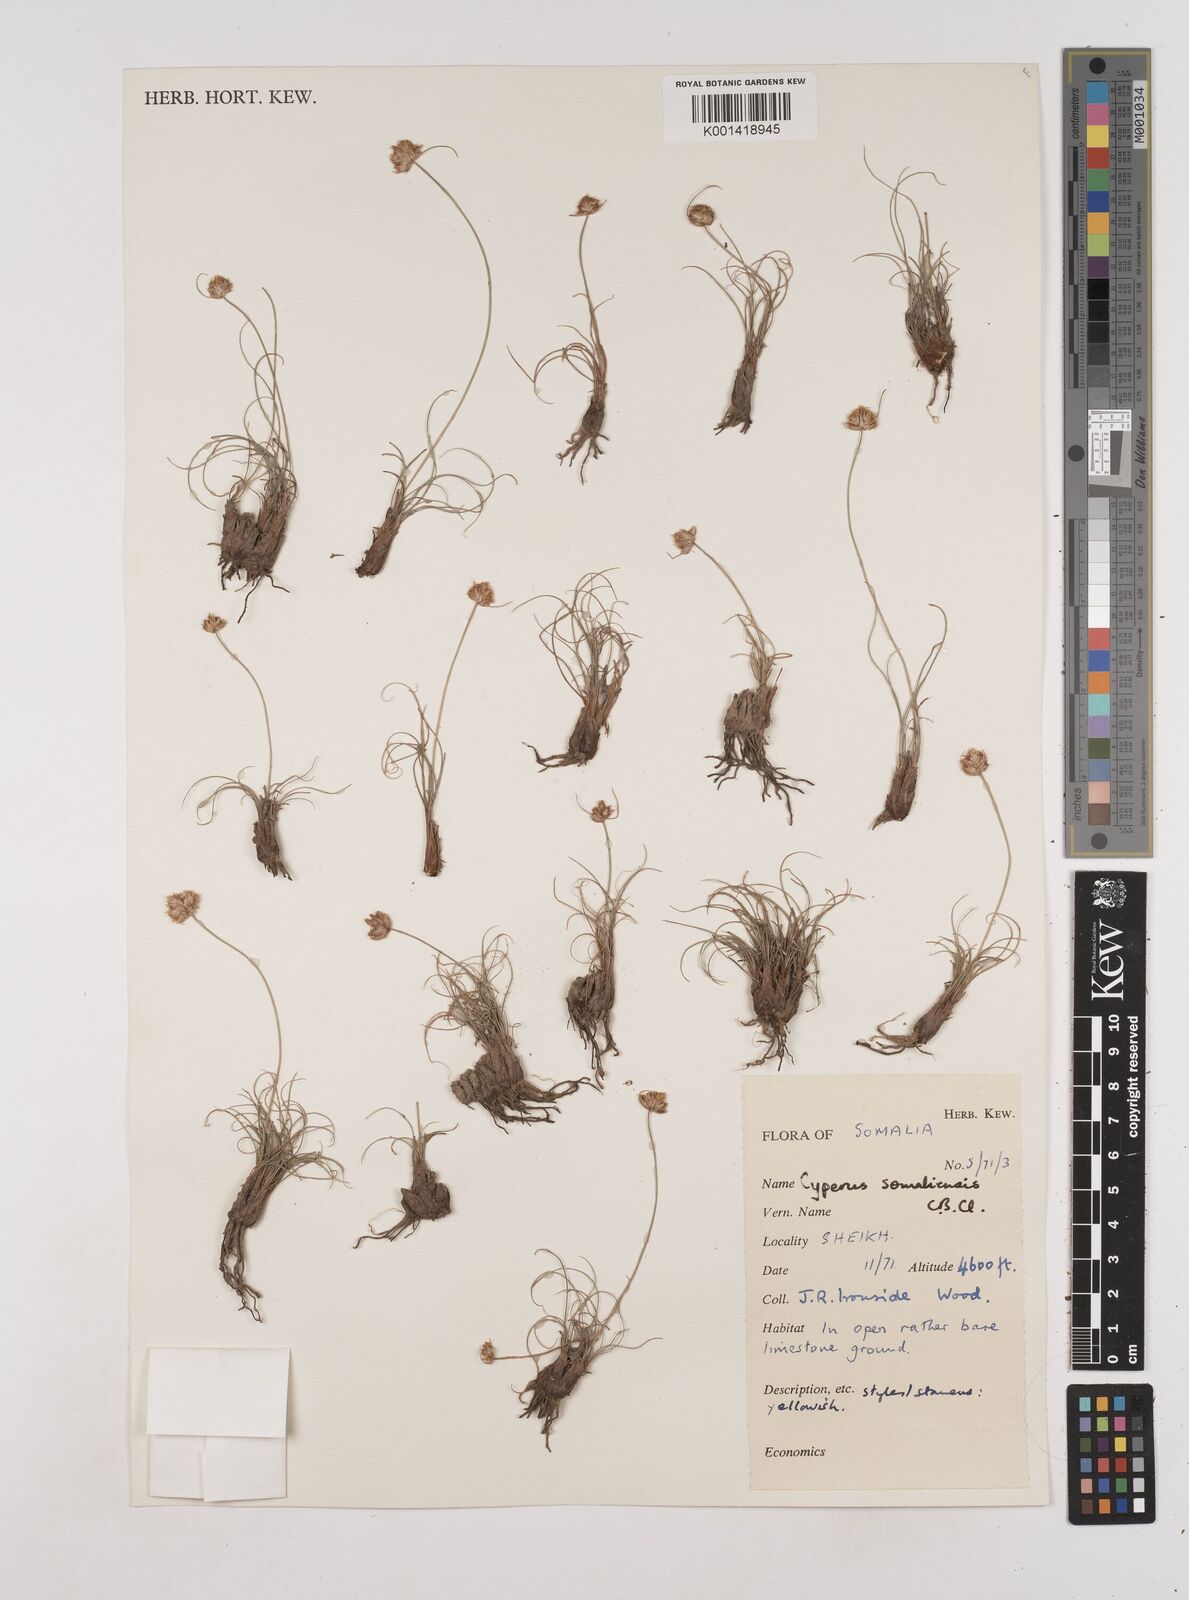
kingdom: Plantae
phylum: Tracheophyta
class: Liliopsida
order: Poales
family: Cyperaceae
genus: Cyperus
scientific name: Cyperus somaliensis
